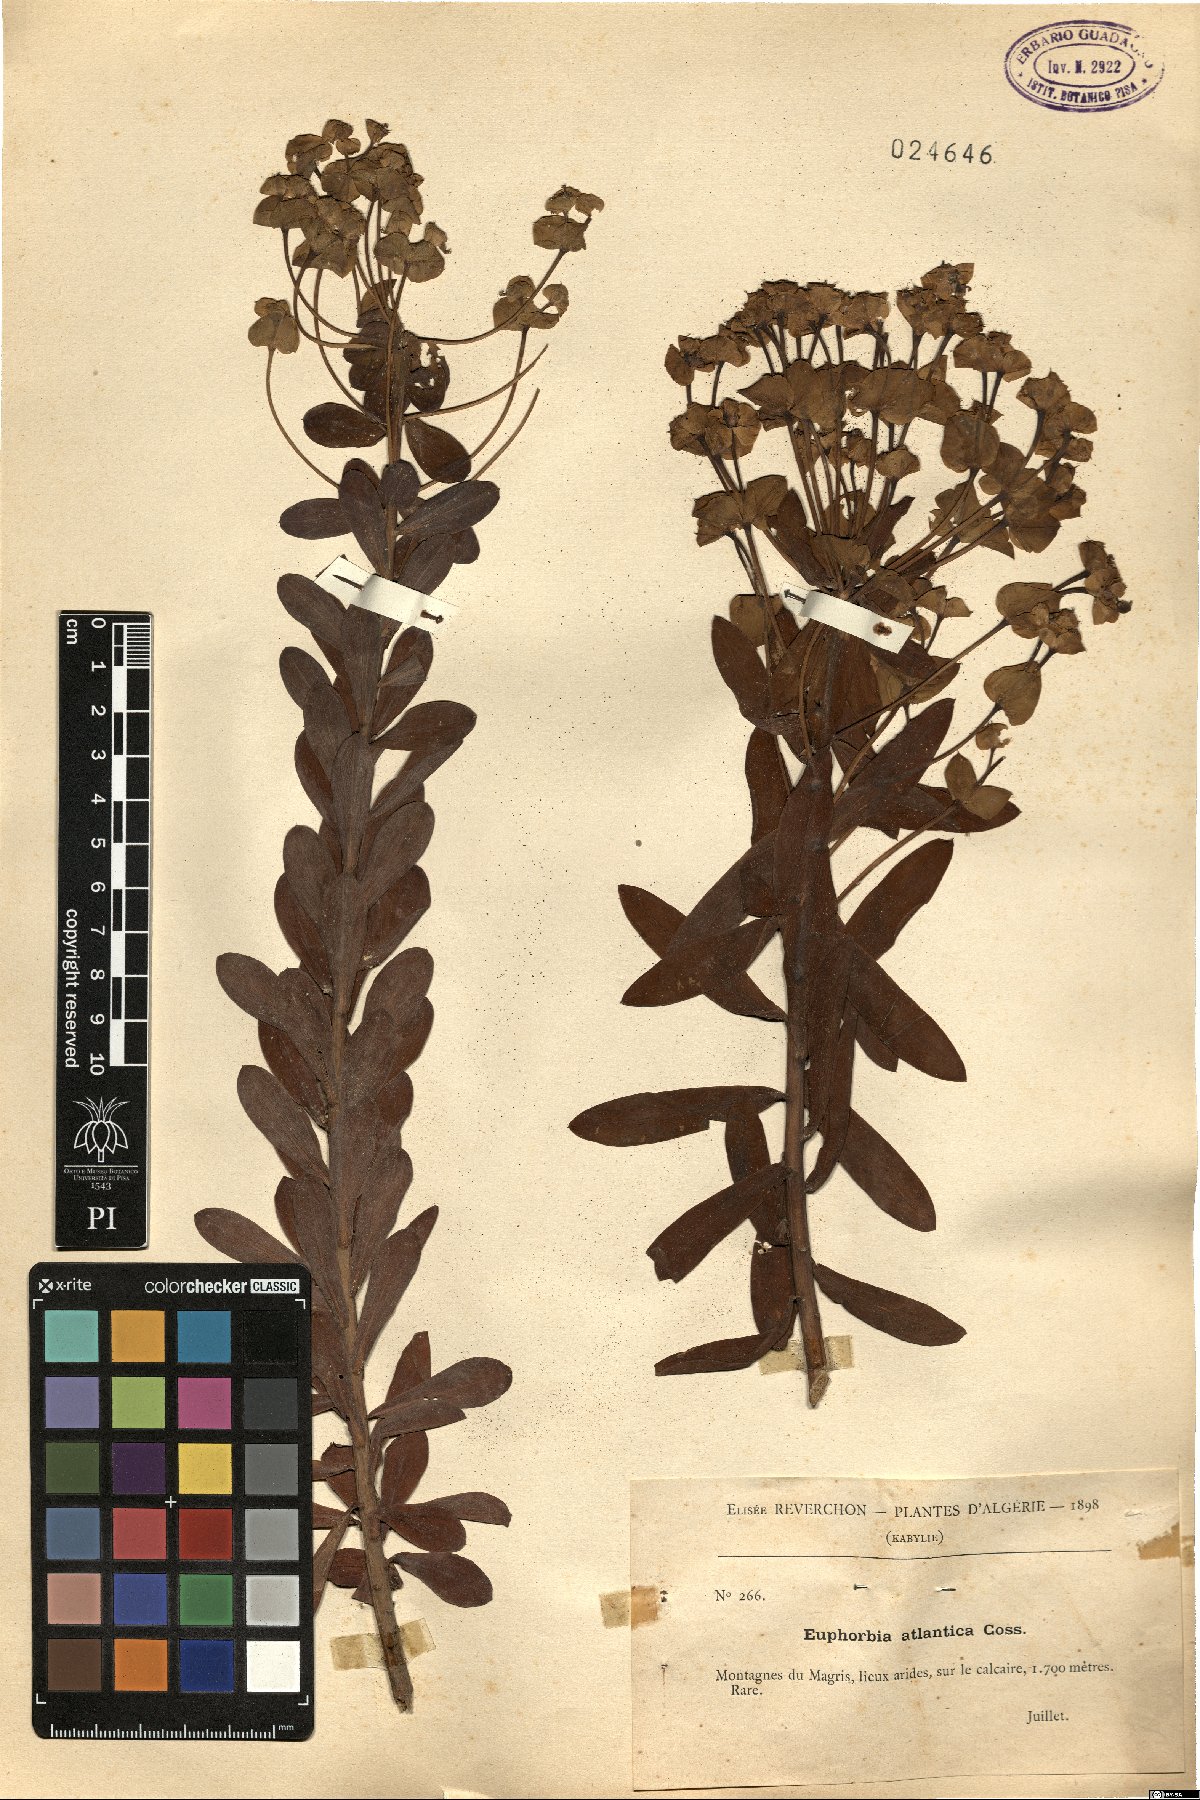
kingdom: Plantae
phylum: Tracheophyta
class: Magnoliopsida
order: Malpighiales
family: Euphorbiaceae
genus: Euphorbia
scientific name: Euphorbia clementei
